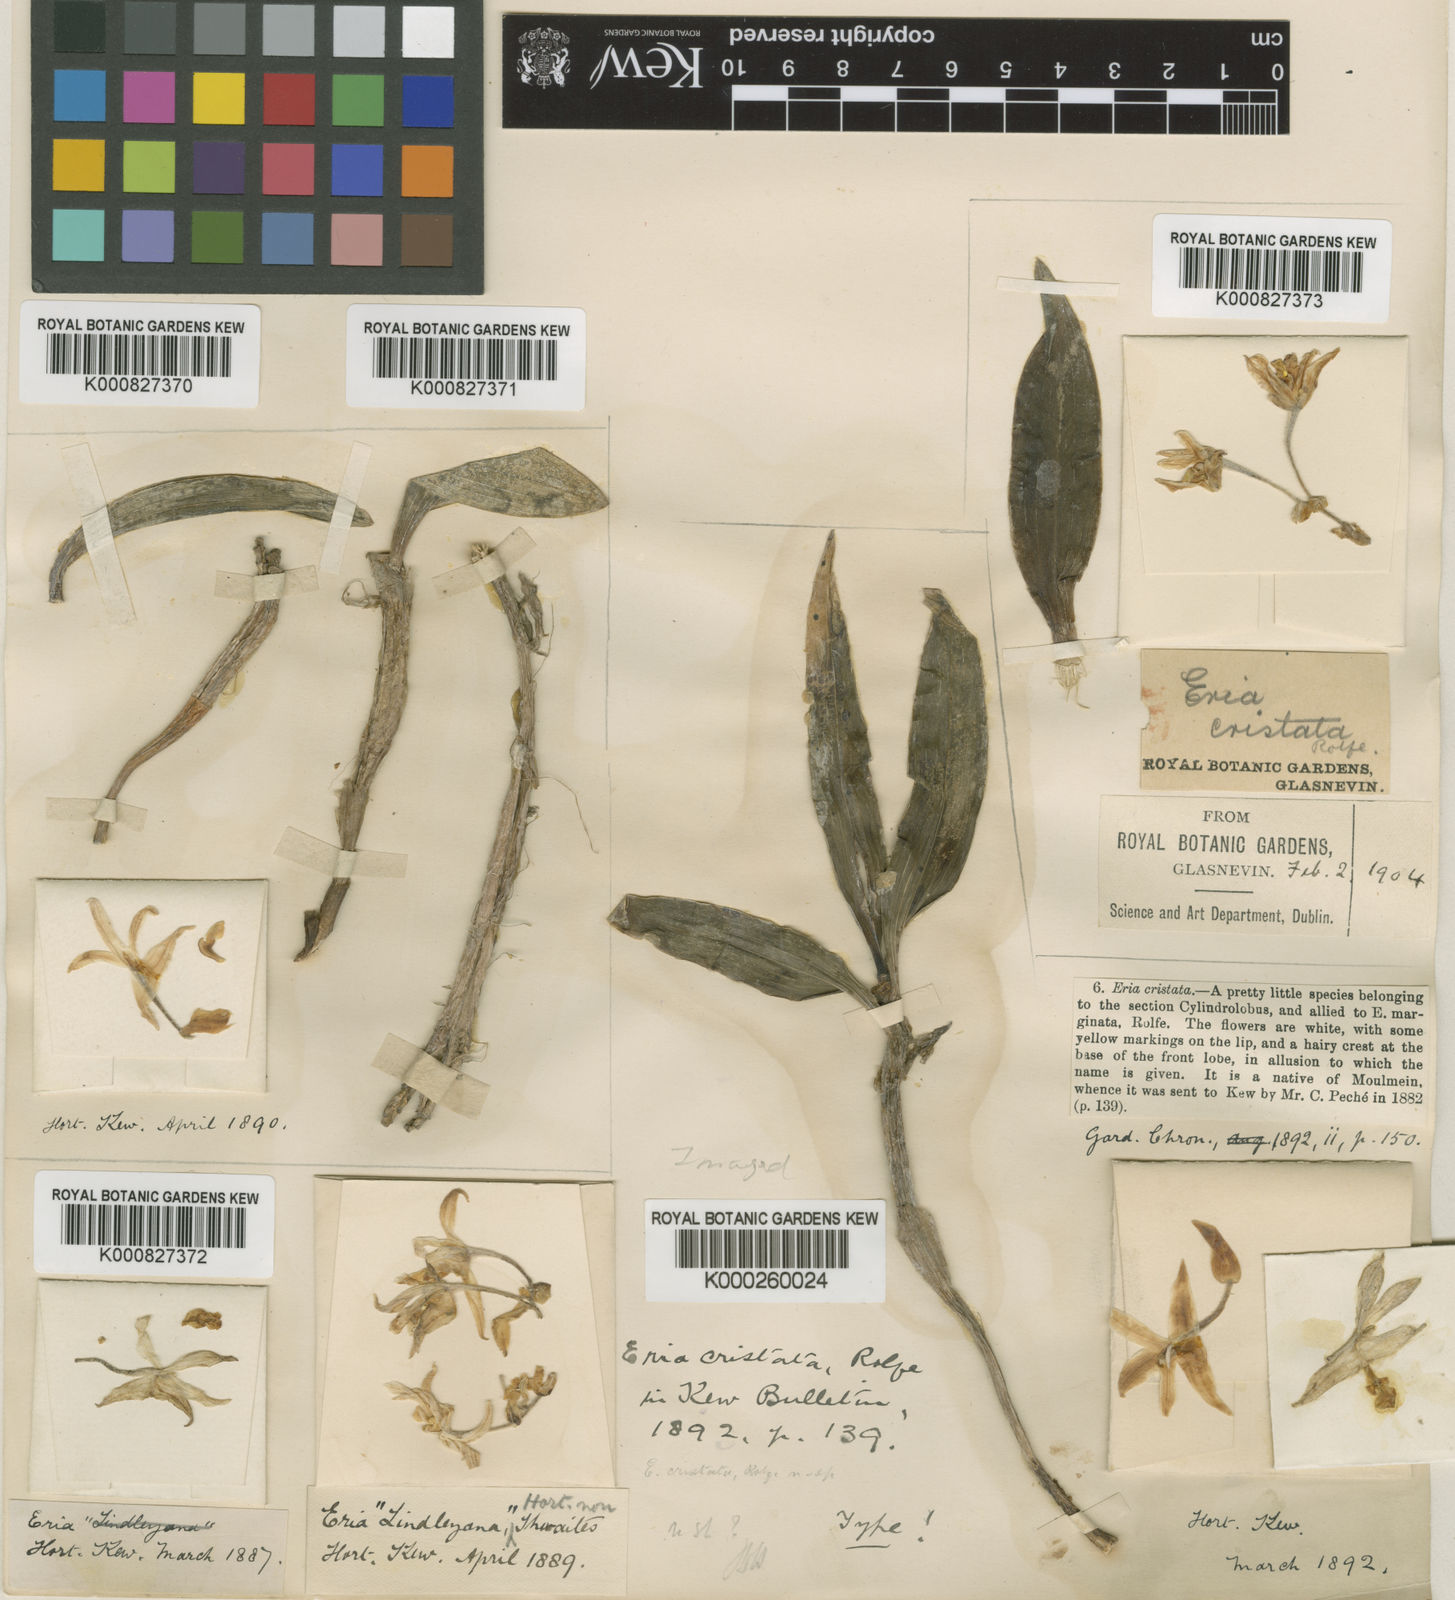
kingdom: Plantae
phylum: Tracheophyta
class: Liliopsida
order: Asparagales
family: Orchidaceae
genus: Cylindrolobus
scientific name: Cylindrolobus cristatus
